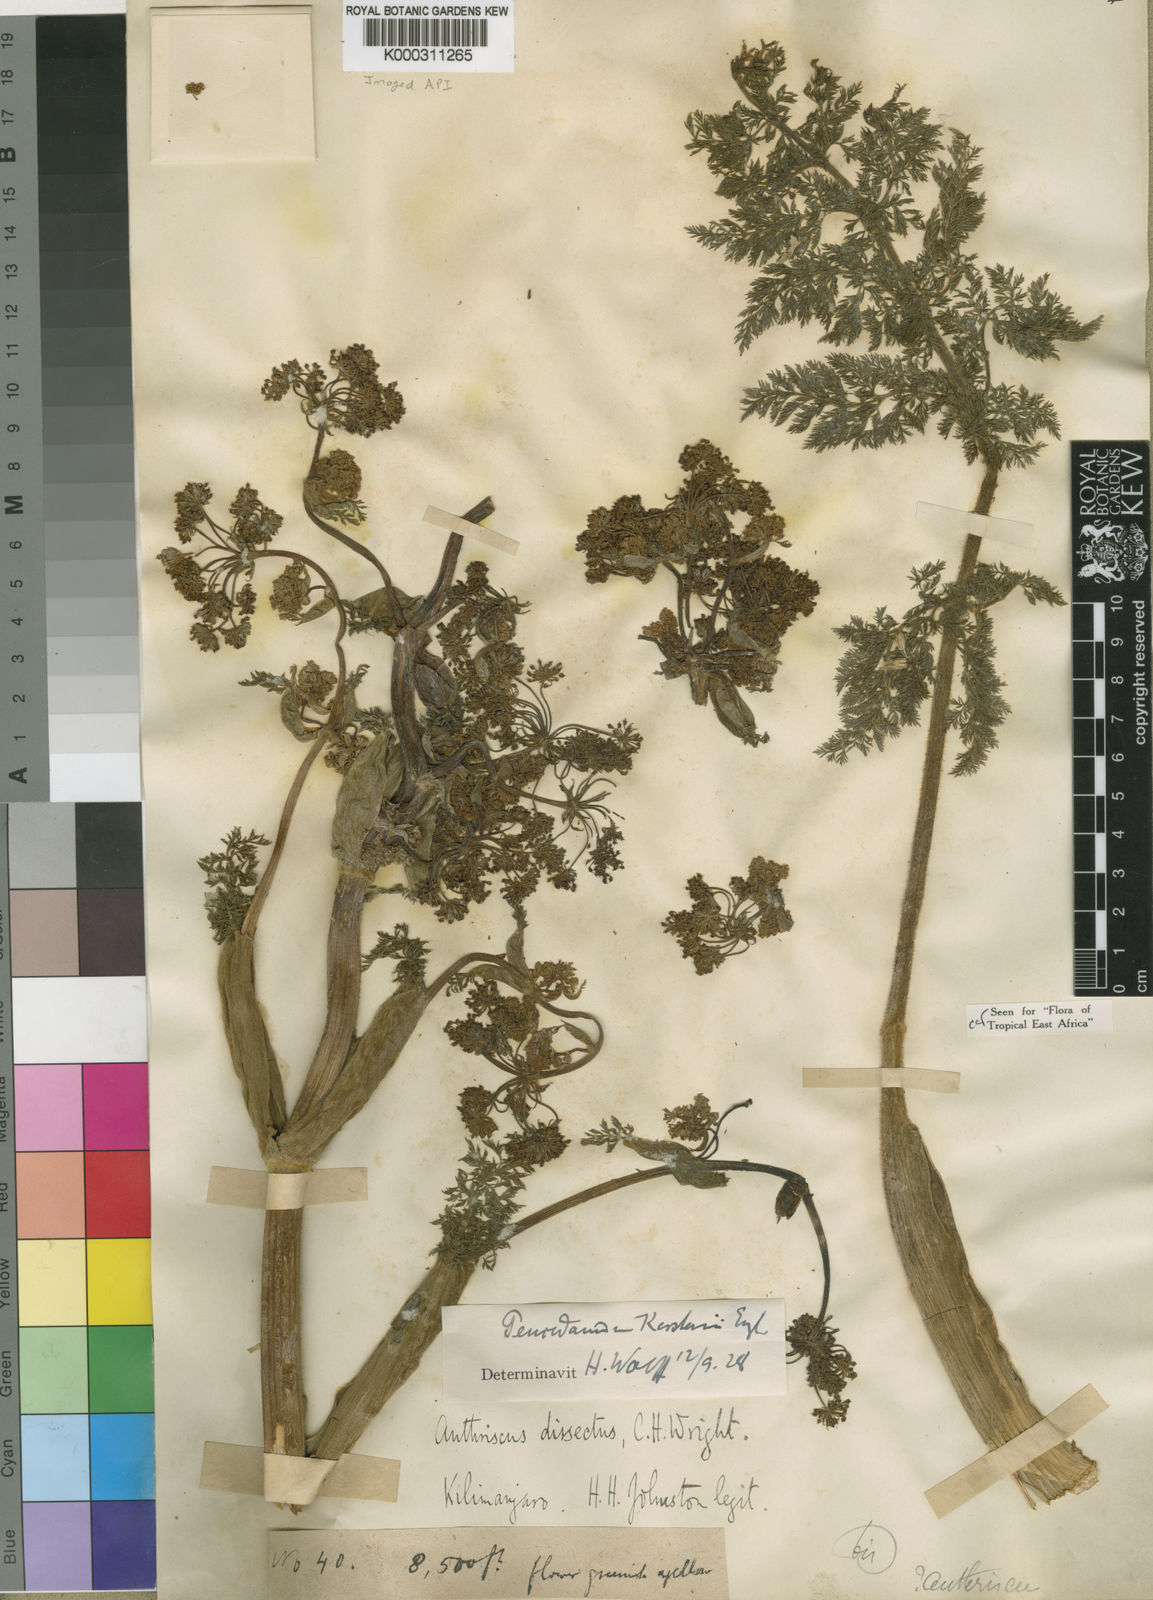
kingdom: Plantae
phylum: Tracheophyta
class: Magnoliopsida
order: Apiales
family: Apiaceae
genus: Afrosciadium
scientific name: Afrosciadium kerstenii
